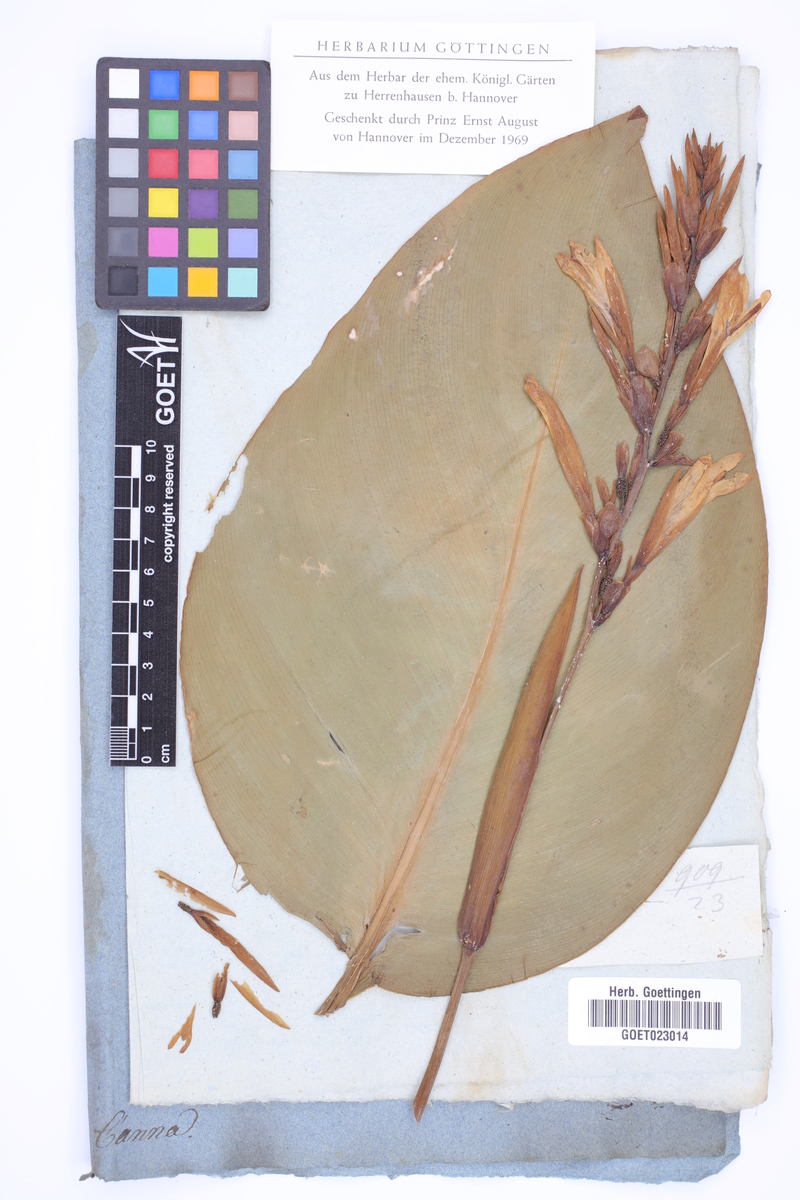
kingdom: Plantae
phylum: Tracheophyta
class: Liliopsida
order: Zingiberales
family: Cannaceae
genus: Canna
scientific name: Canna
